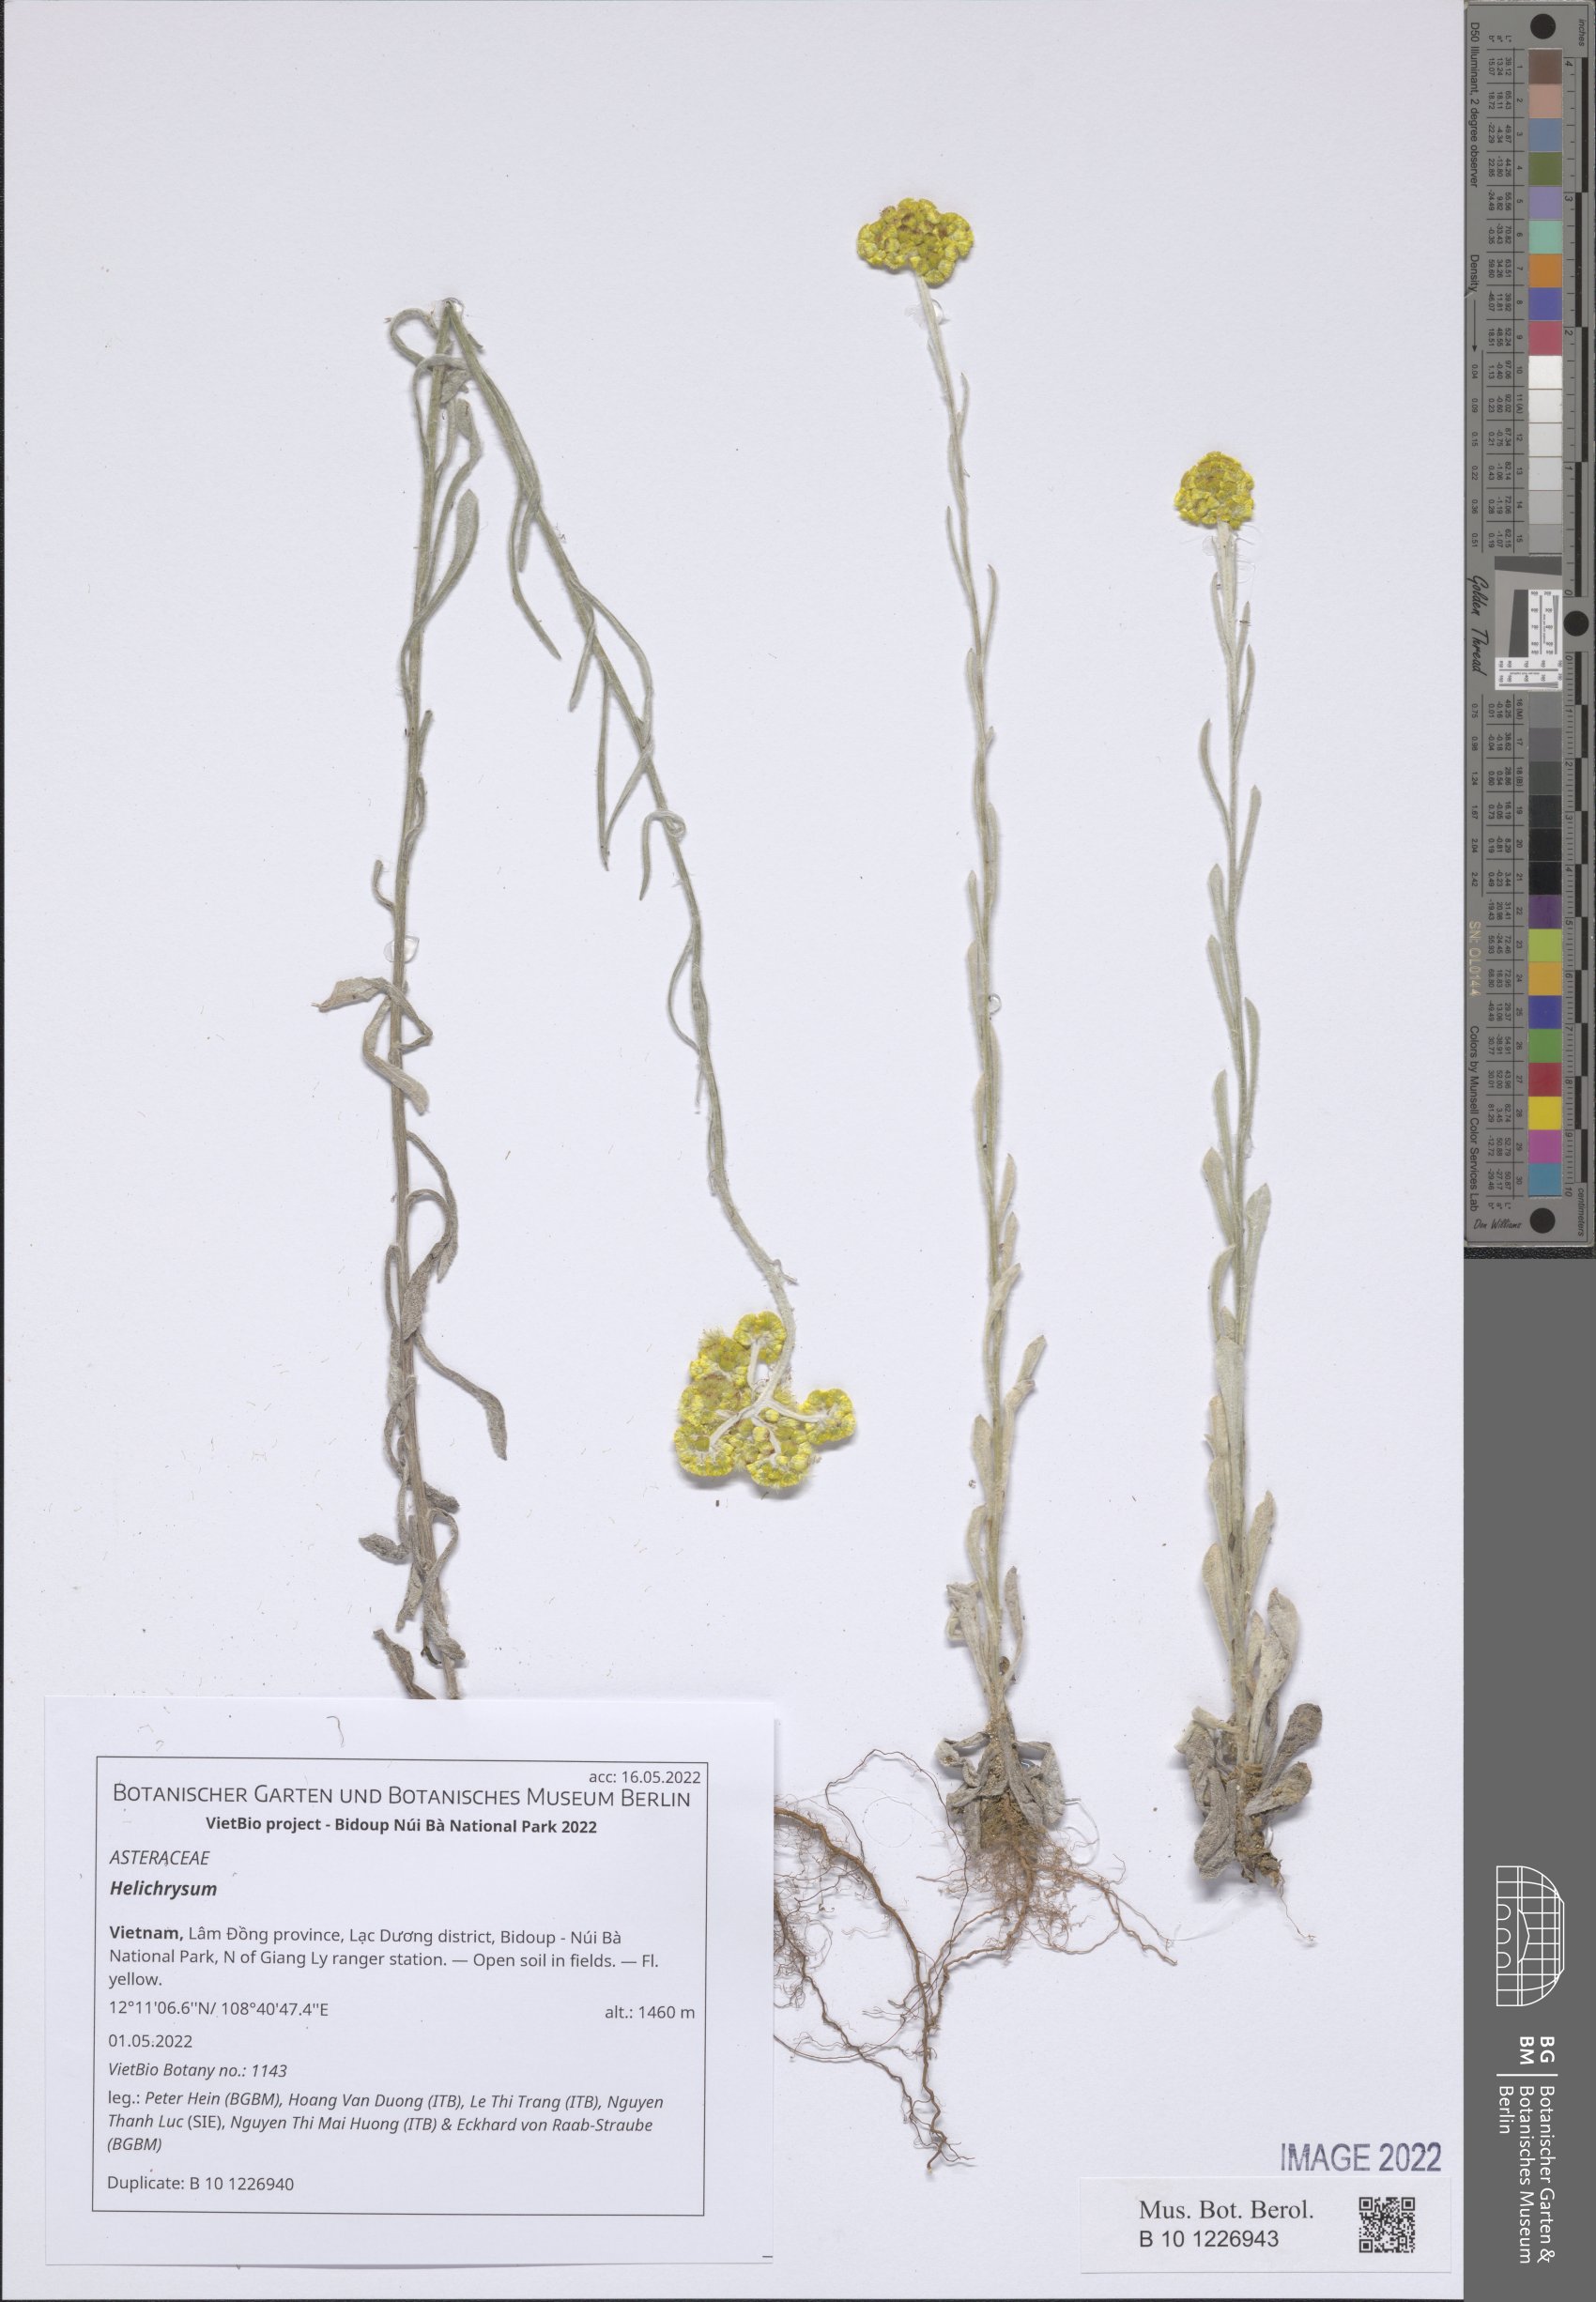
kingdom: Plantae
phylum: Tracheophyta
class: Magnoliopsida
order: Asterales
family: Asteraceae
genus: Helichrysum
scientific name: Helichrysum
